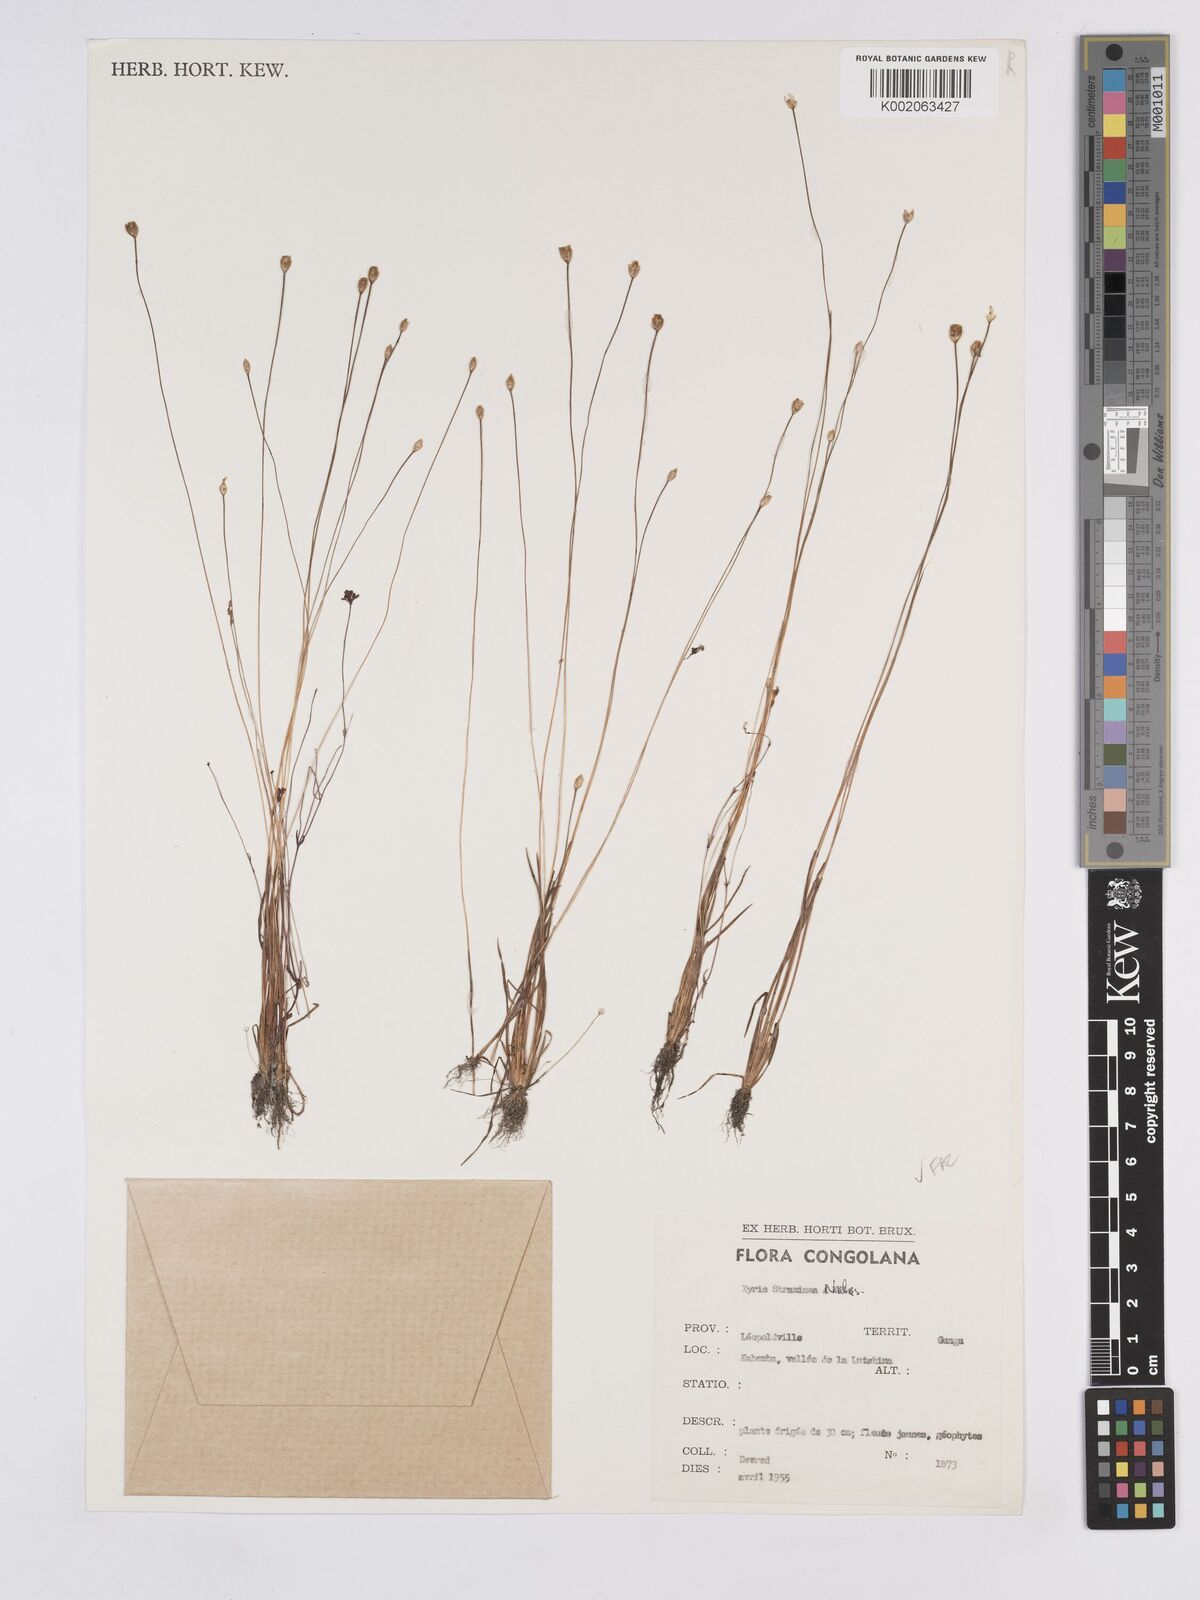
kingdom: Plantae
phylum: Tracheophyta
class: Liliopsida
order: Poales
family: Xyridaceae
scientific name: Xyridaceae
